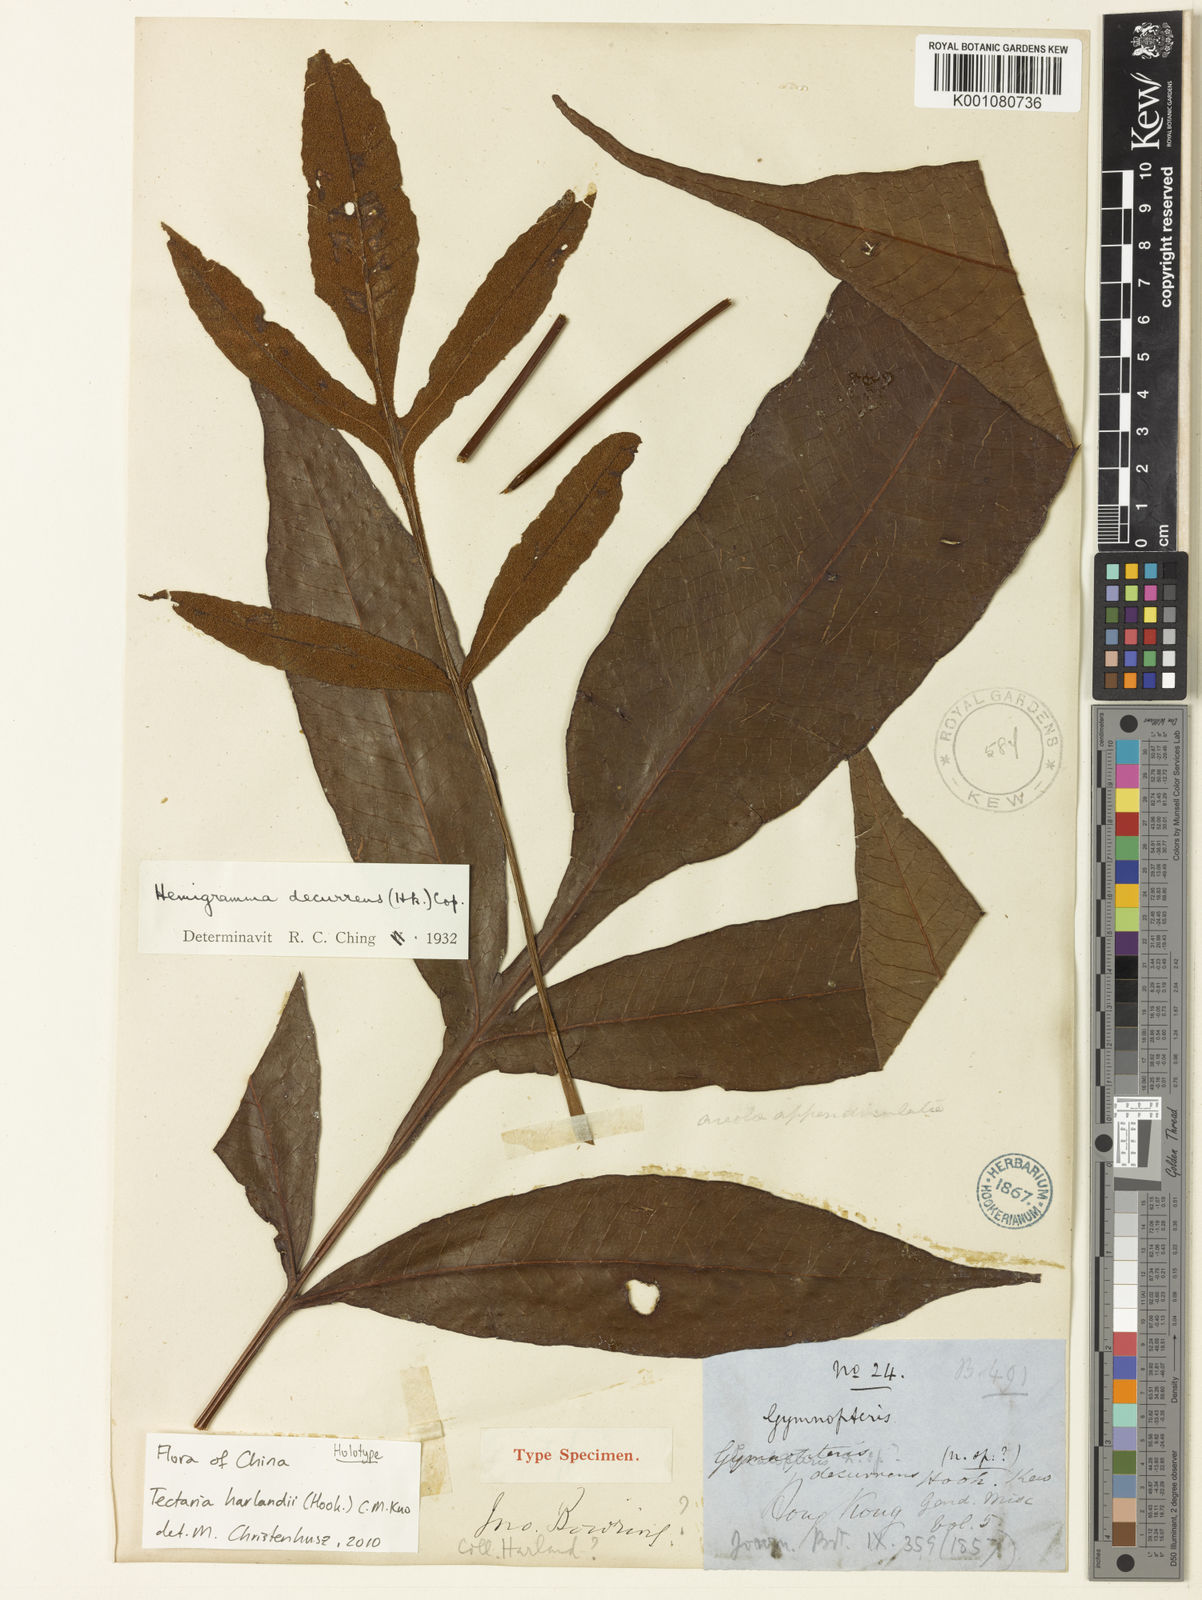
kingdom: Plantae
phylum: Tracheophyta
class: Polypodiopsida
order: Polypodiales
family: Tectariaceae
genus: Tectaria
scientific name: Tectaria harlandii
